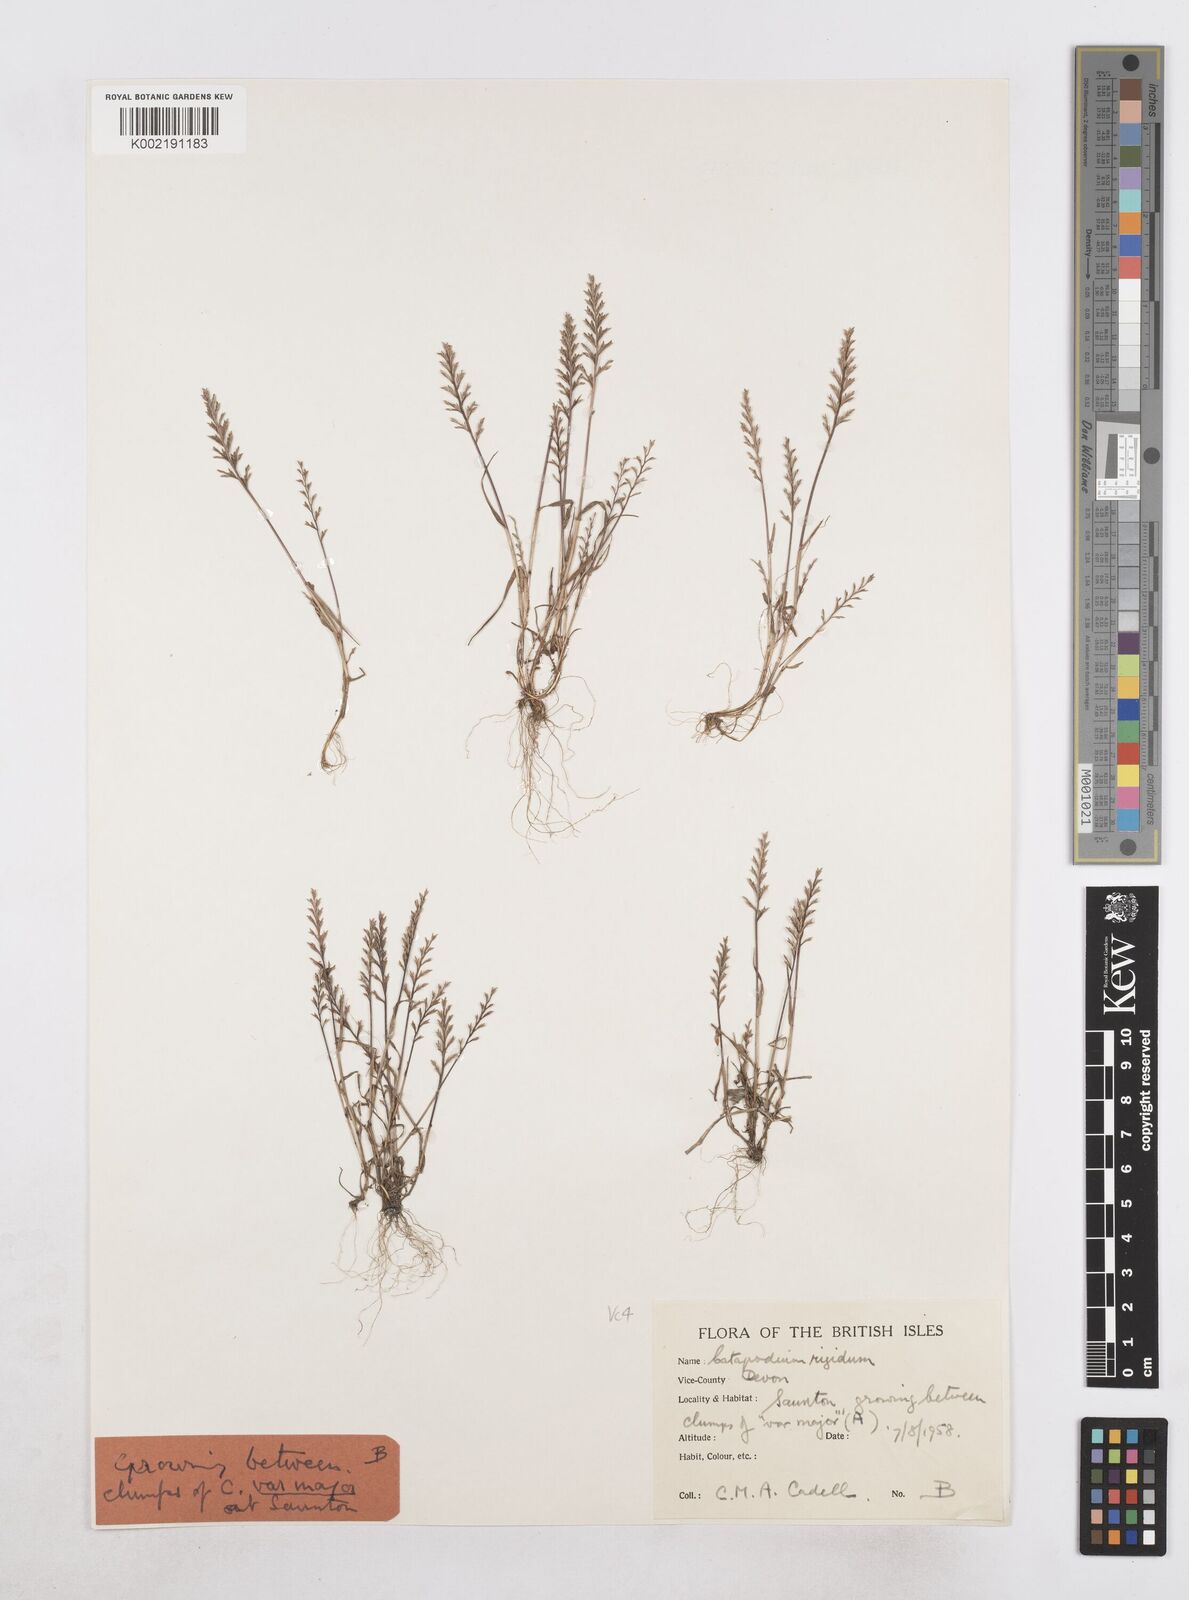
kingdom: Plantae
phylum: Tracheophyta
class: Liliopsida
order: Poales
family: Poaceae
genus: Catapodium
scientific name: Catapodium rigidum
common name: Fern-grass
